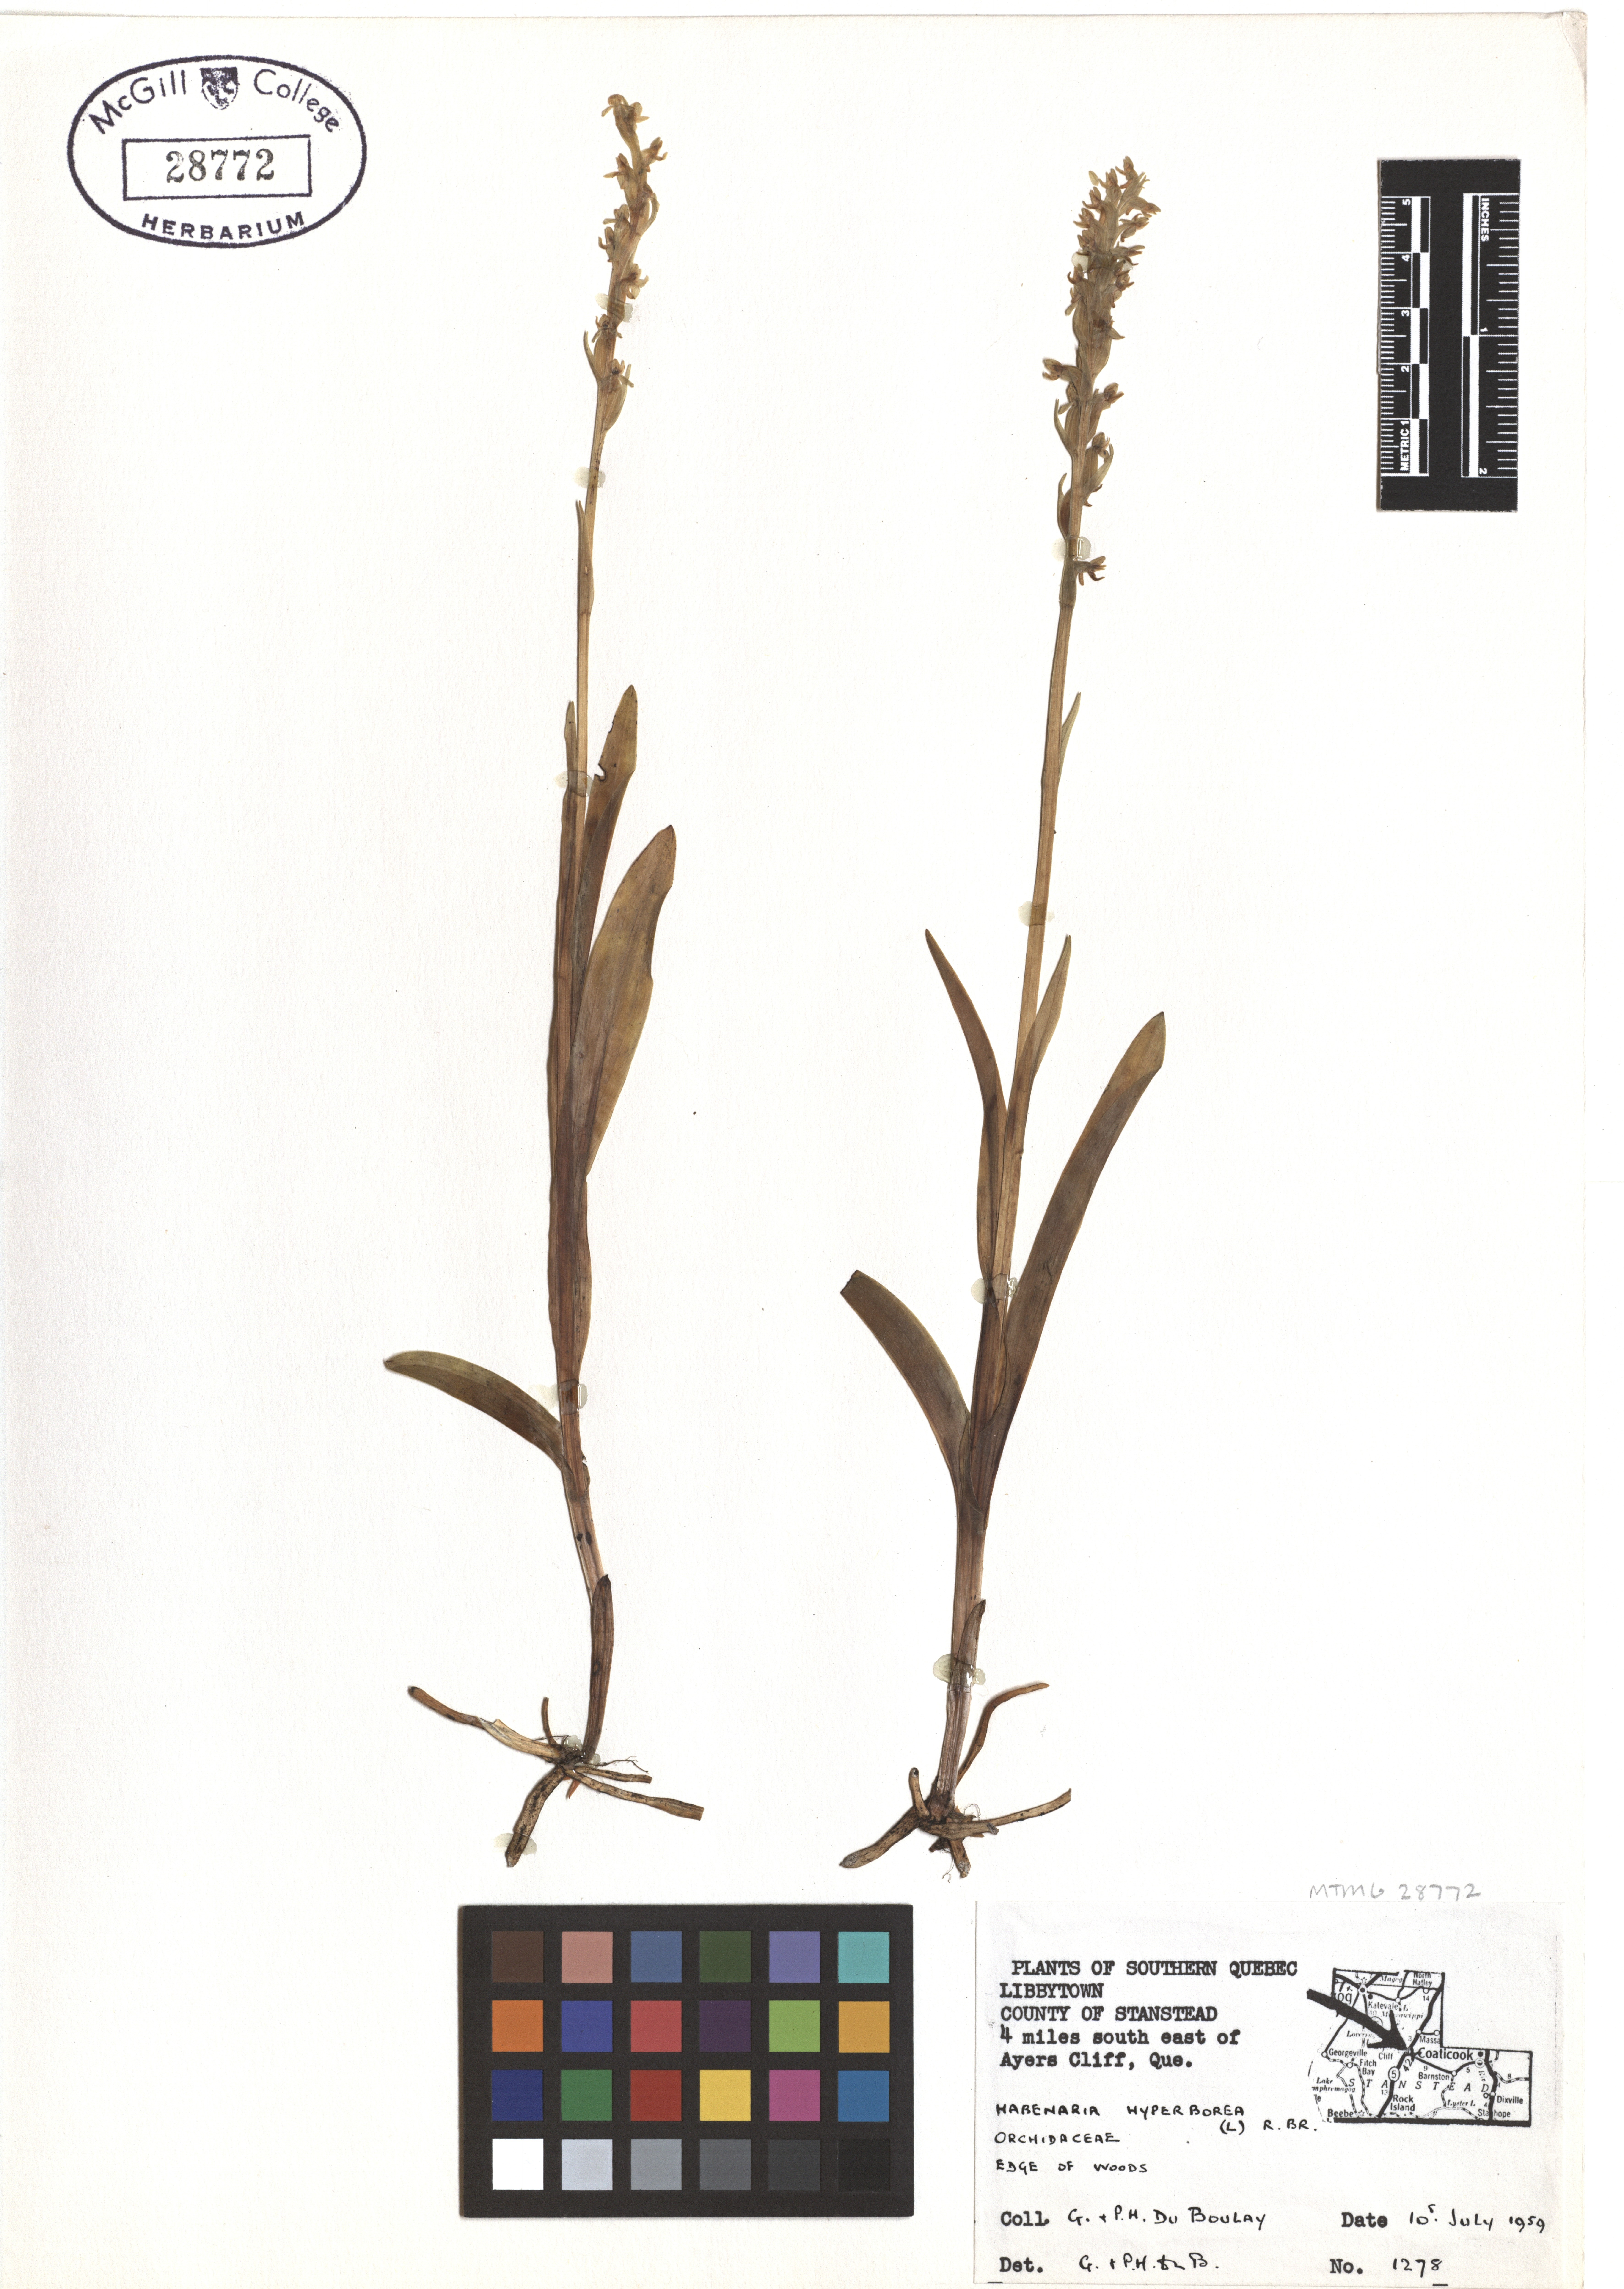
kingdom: Plantae
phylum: Tracheophyta
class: Liliopsida
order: Asparagales
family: Orchidaceae
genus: Platanthera
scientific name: Platanthera hyperborea
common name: Northern green orchid
